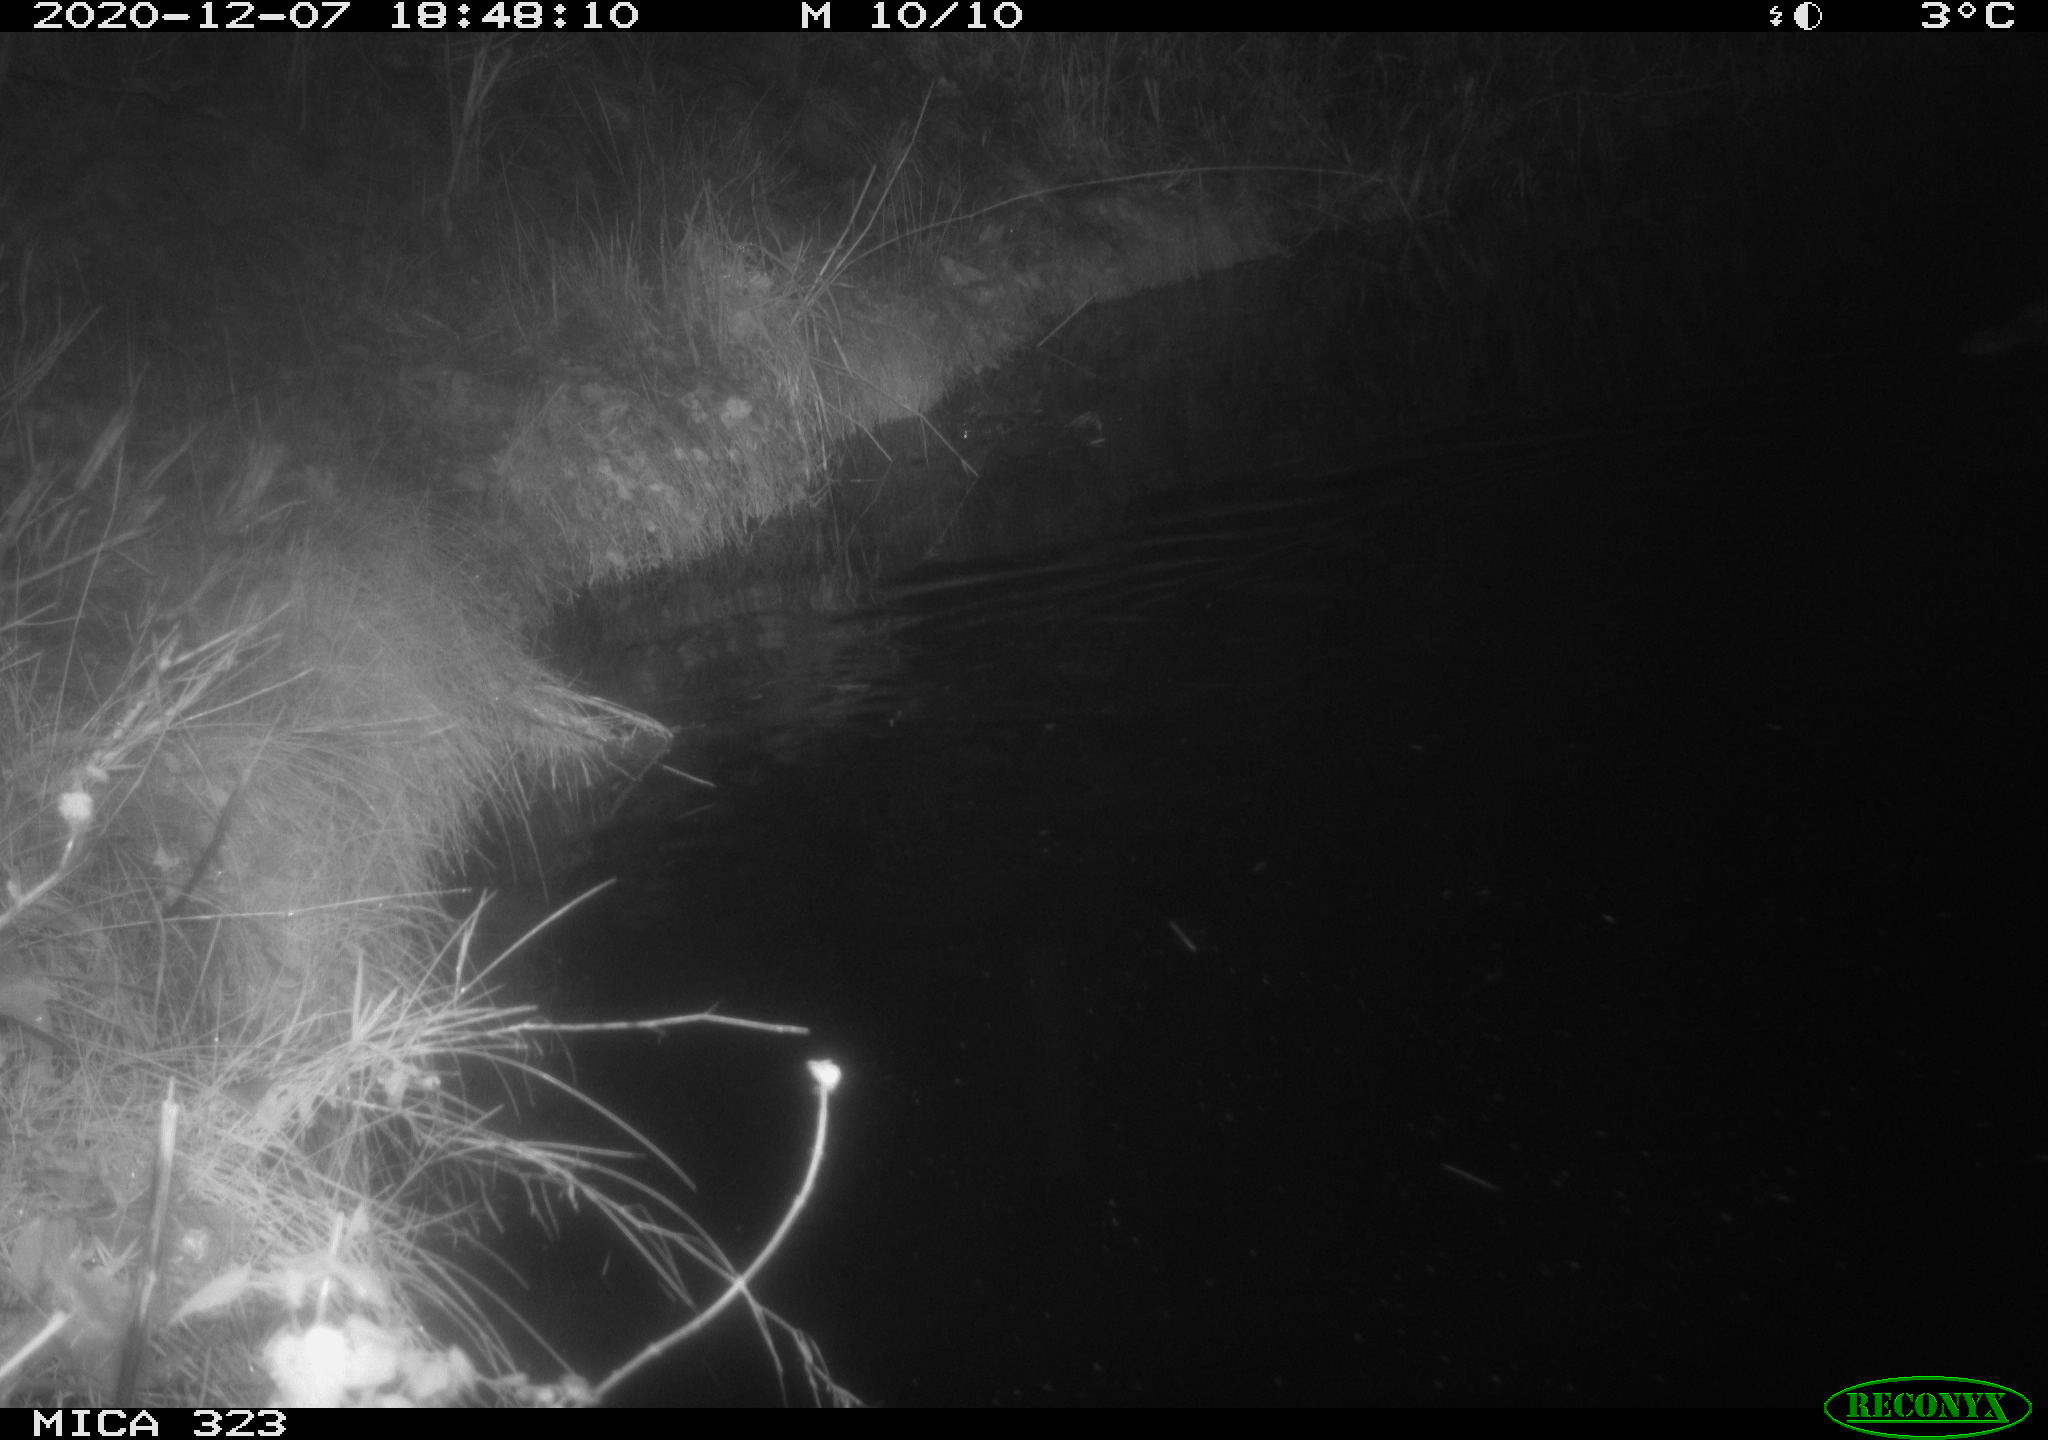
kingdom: Animalia
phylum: Chordata
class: Mammalia
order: Rodentia
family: Myocastoridae
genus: Myocastor
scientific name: Myocastor coypus
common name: Coypu
